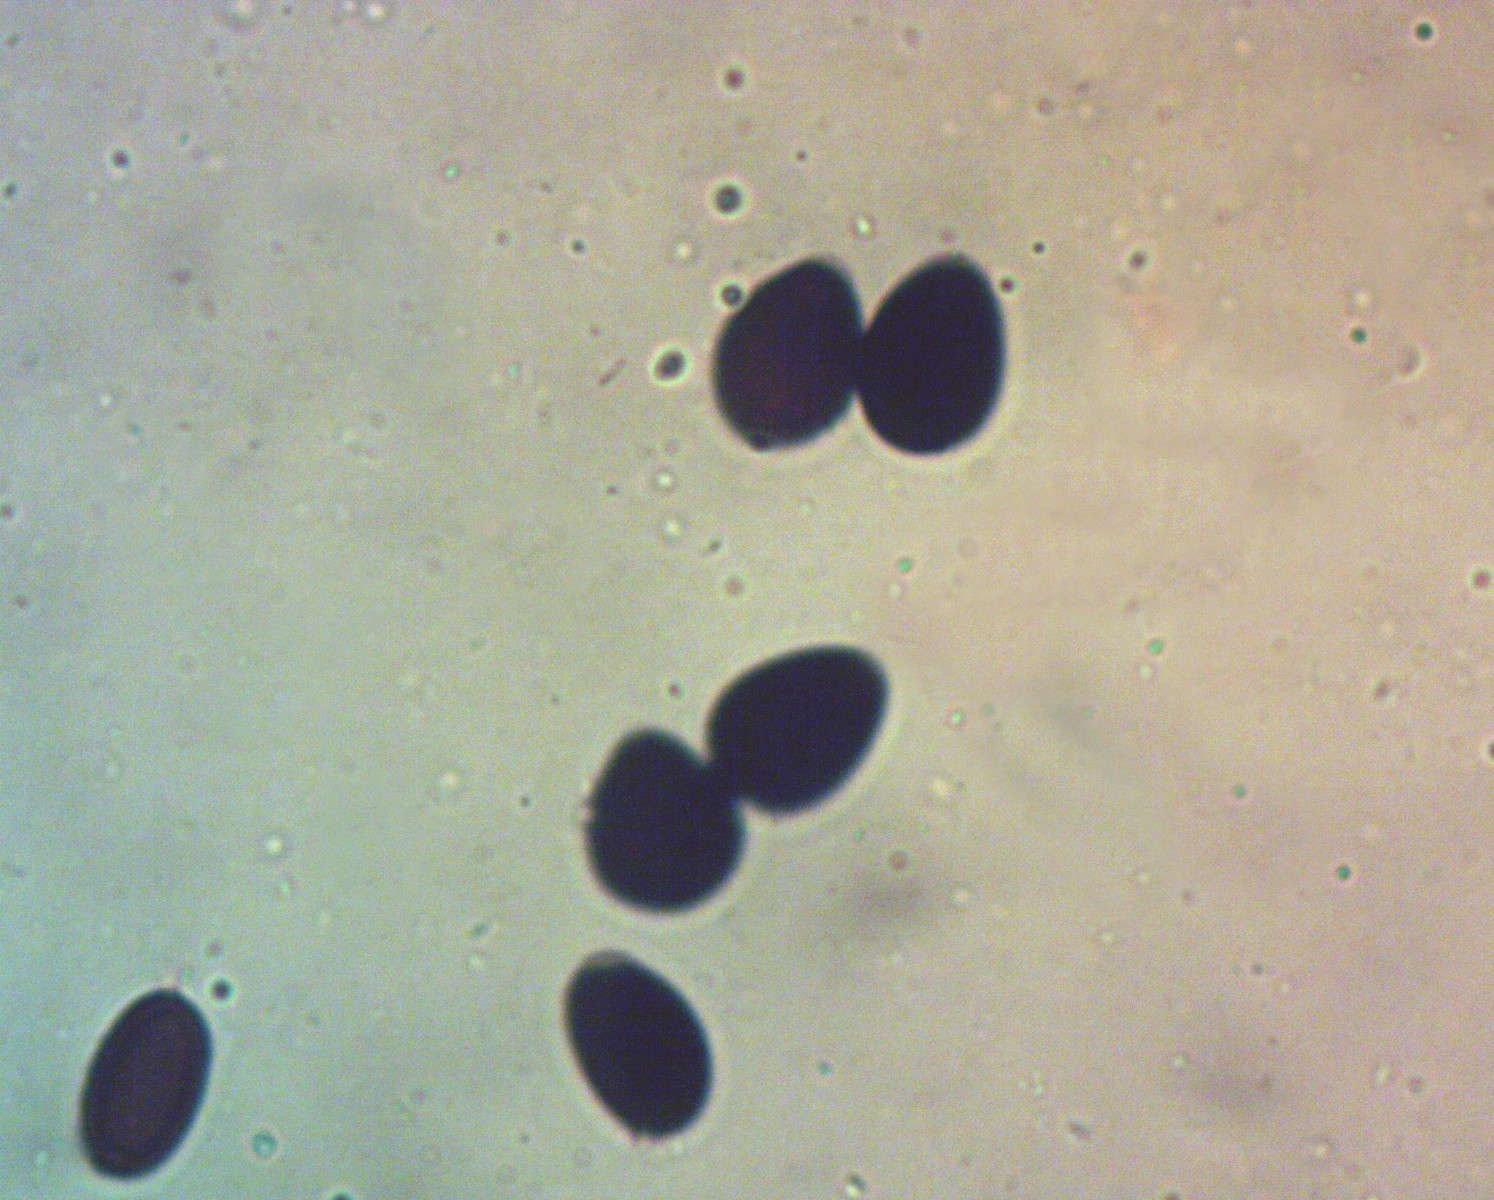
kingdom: Fungi
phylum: Basidiomycota
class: Agaricomycetes
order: Agaricales
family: Psathyrellaceae
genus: Parasola
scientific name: Parasola schroeteri
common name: bredsporet hjulhat
